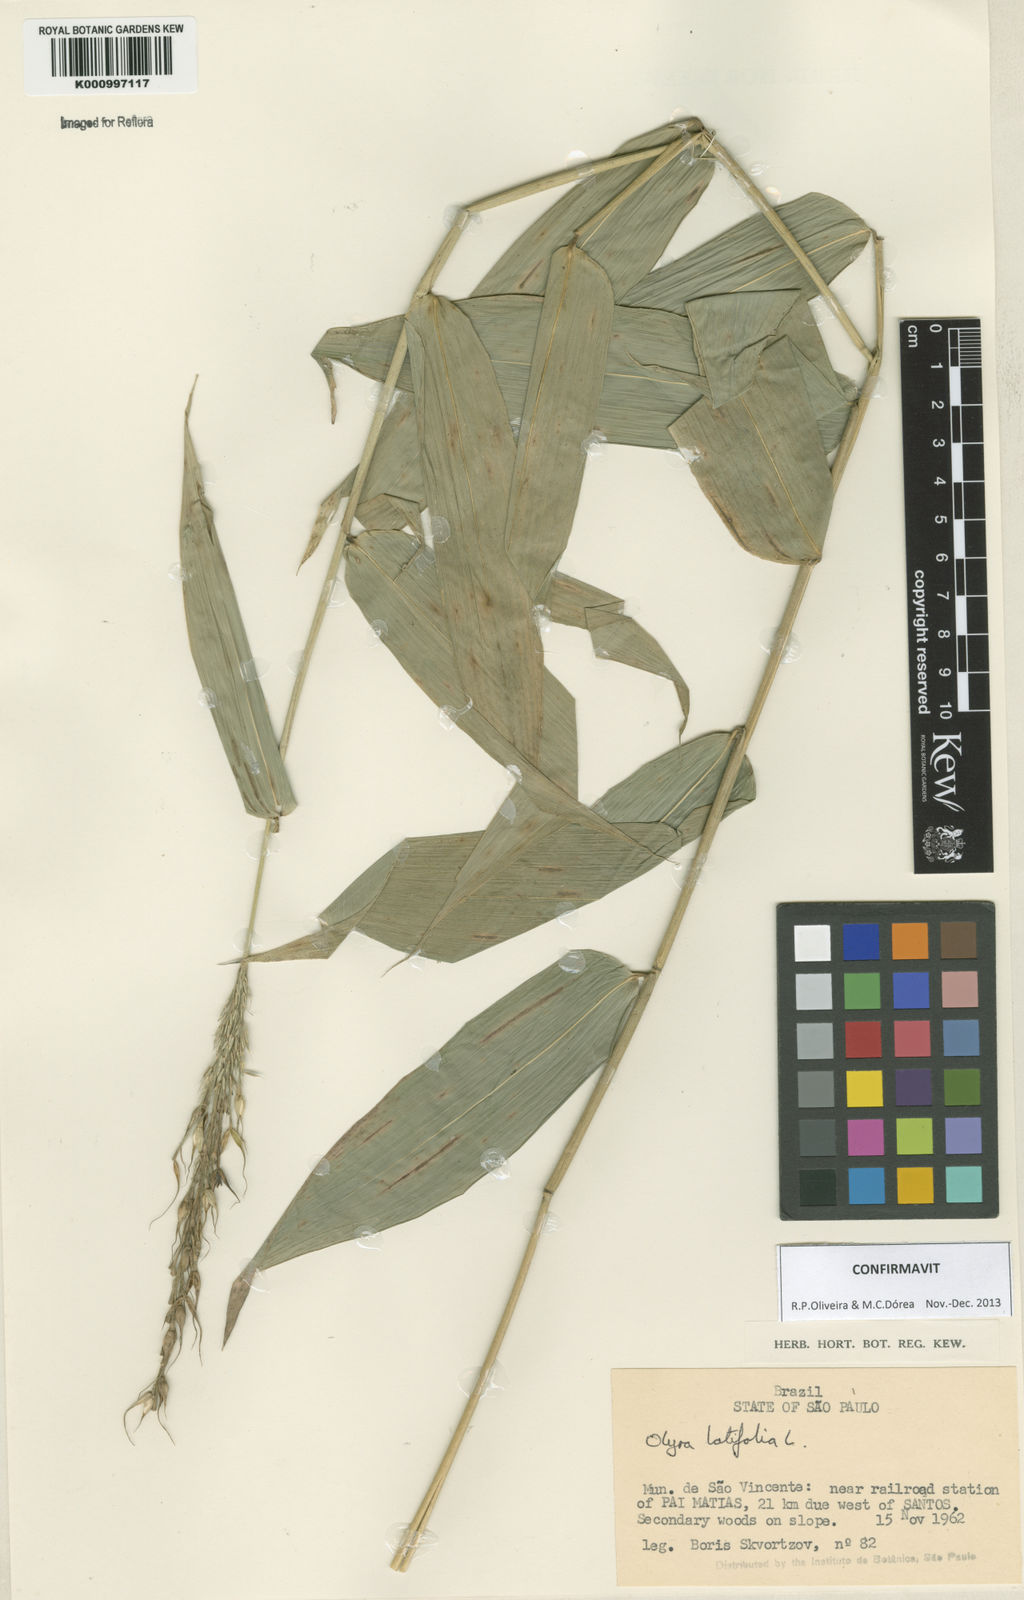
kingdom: Plantae
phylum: Tracheophyta
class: Liliopsida
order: Poales
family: Poaceae
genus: Olyra
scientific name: Olyra latifolia
